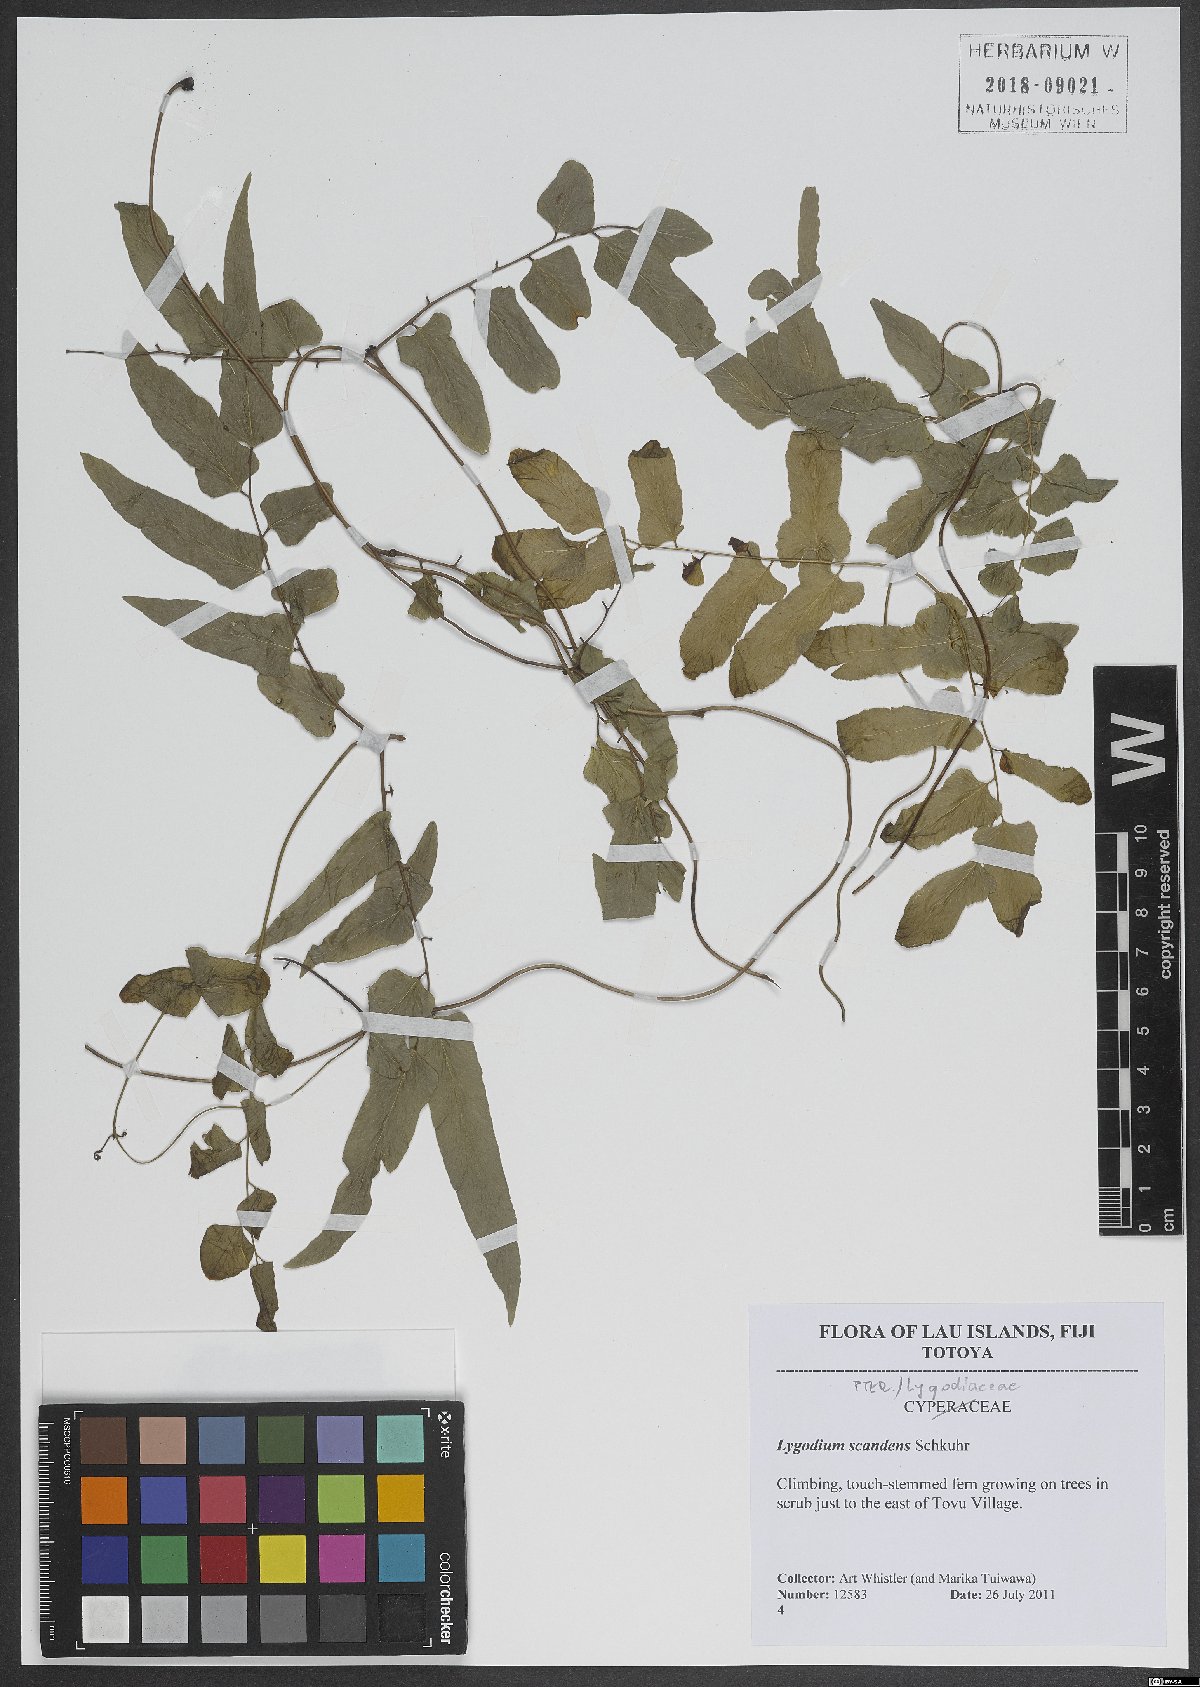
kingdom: Plantae
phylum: Tracheophyta
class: Polypodiopsida
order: Schizaeales
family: Lygodiaceae
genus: Lygodium
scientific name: Lygodium flexuosum
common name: Maidenhair creeper
